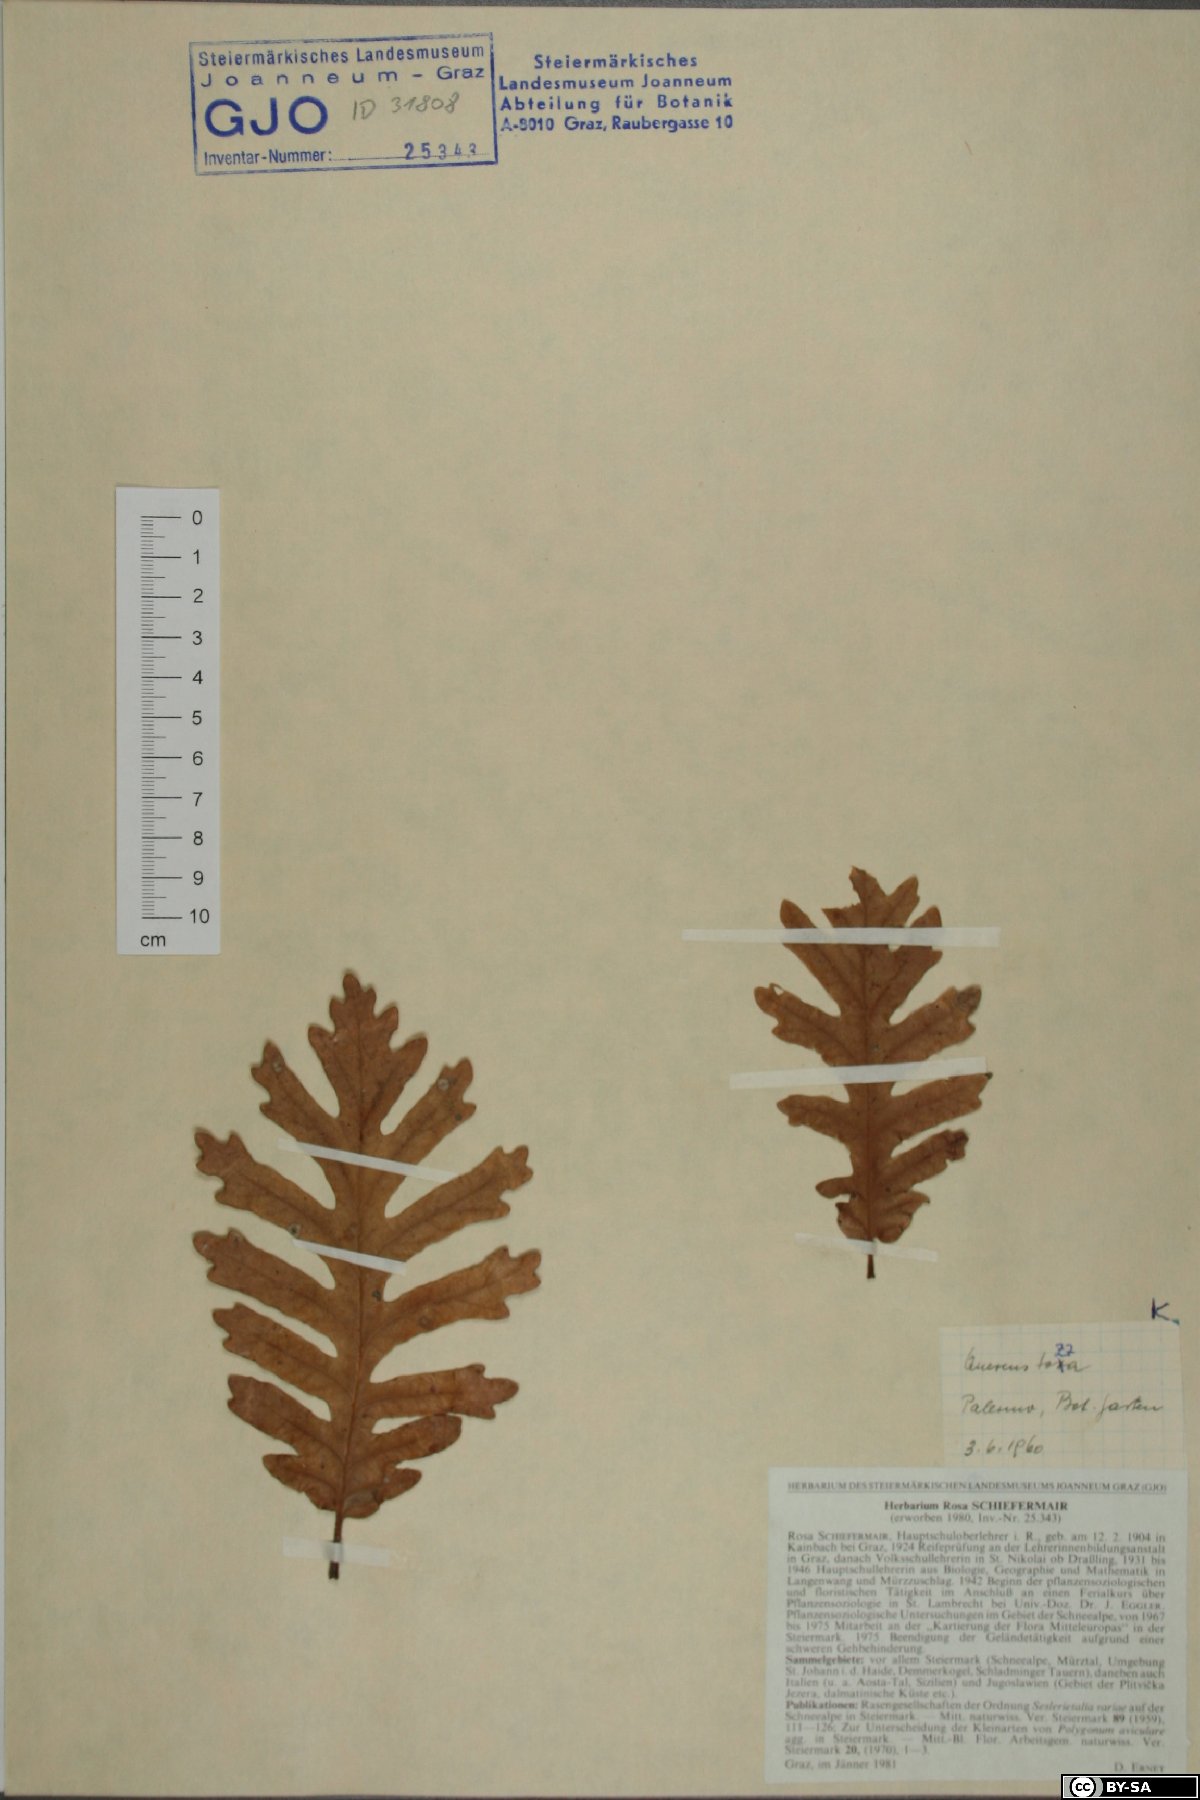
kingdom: Plantae
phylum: Tracheophyta
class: Magnoliopsida
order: Fagales
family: Fagaceae
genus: Quercus
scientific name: Quercus pyrenaica
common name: Pyrenean oak
